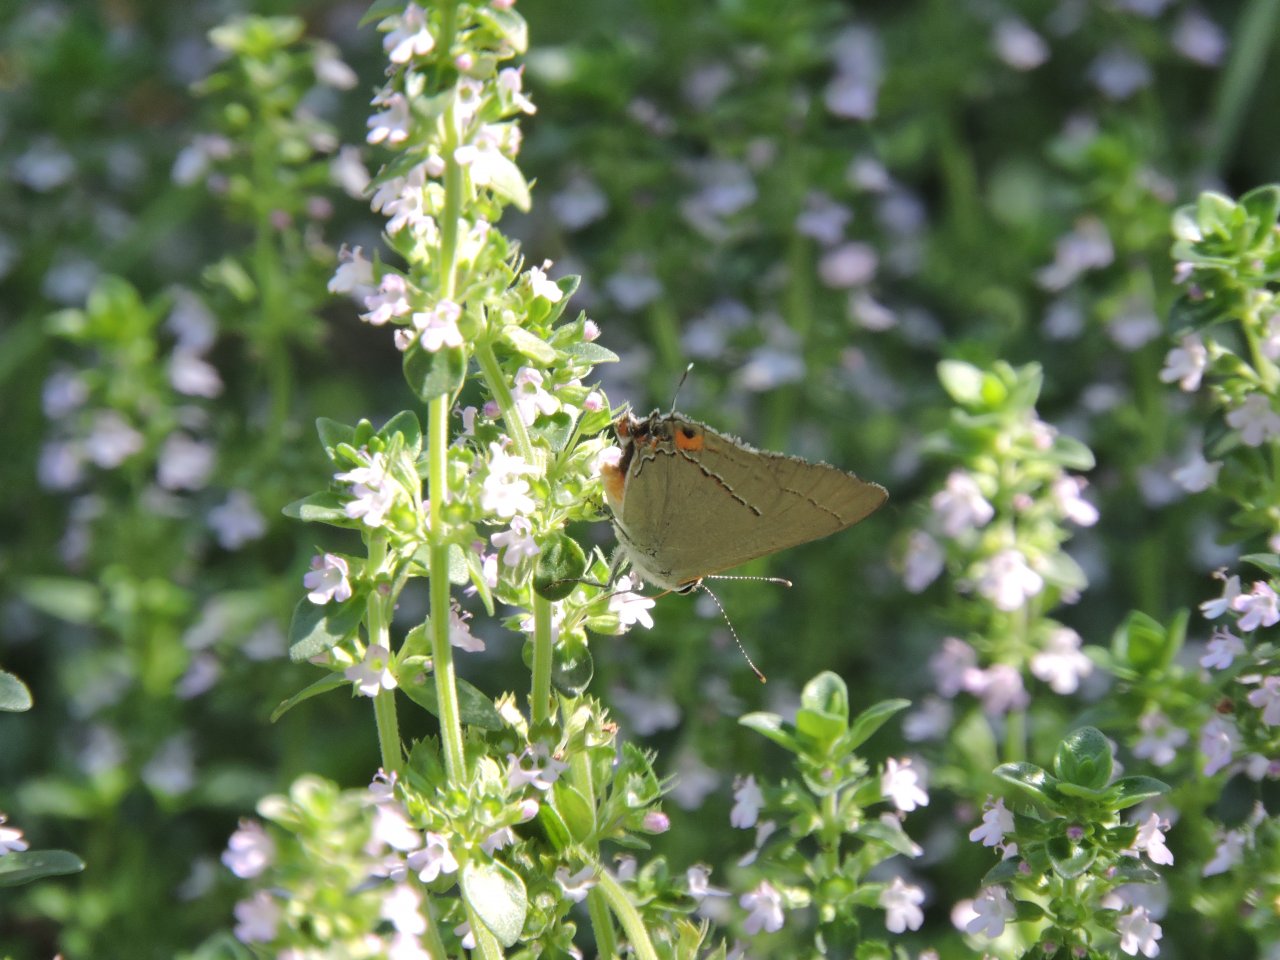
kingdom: Animalia
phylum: Arthropoda
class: Insecta
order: Lepidoptera
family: Lycaenidae
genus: Strymon
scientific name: Strymon melinus
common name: Gray Hairstreak
